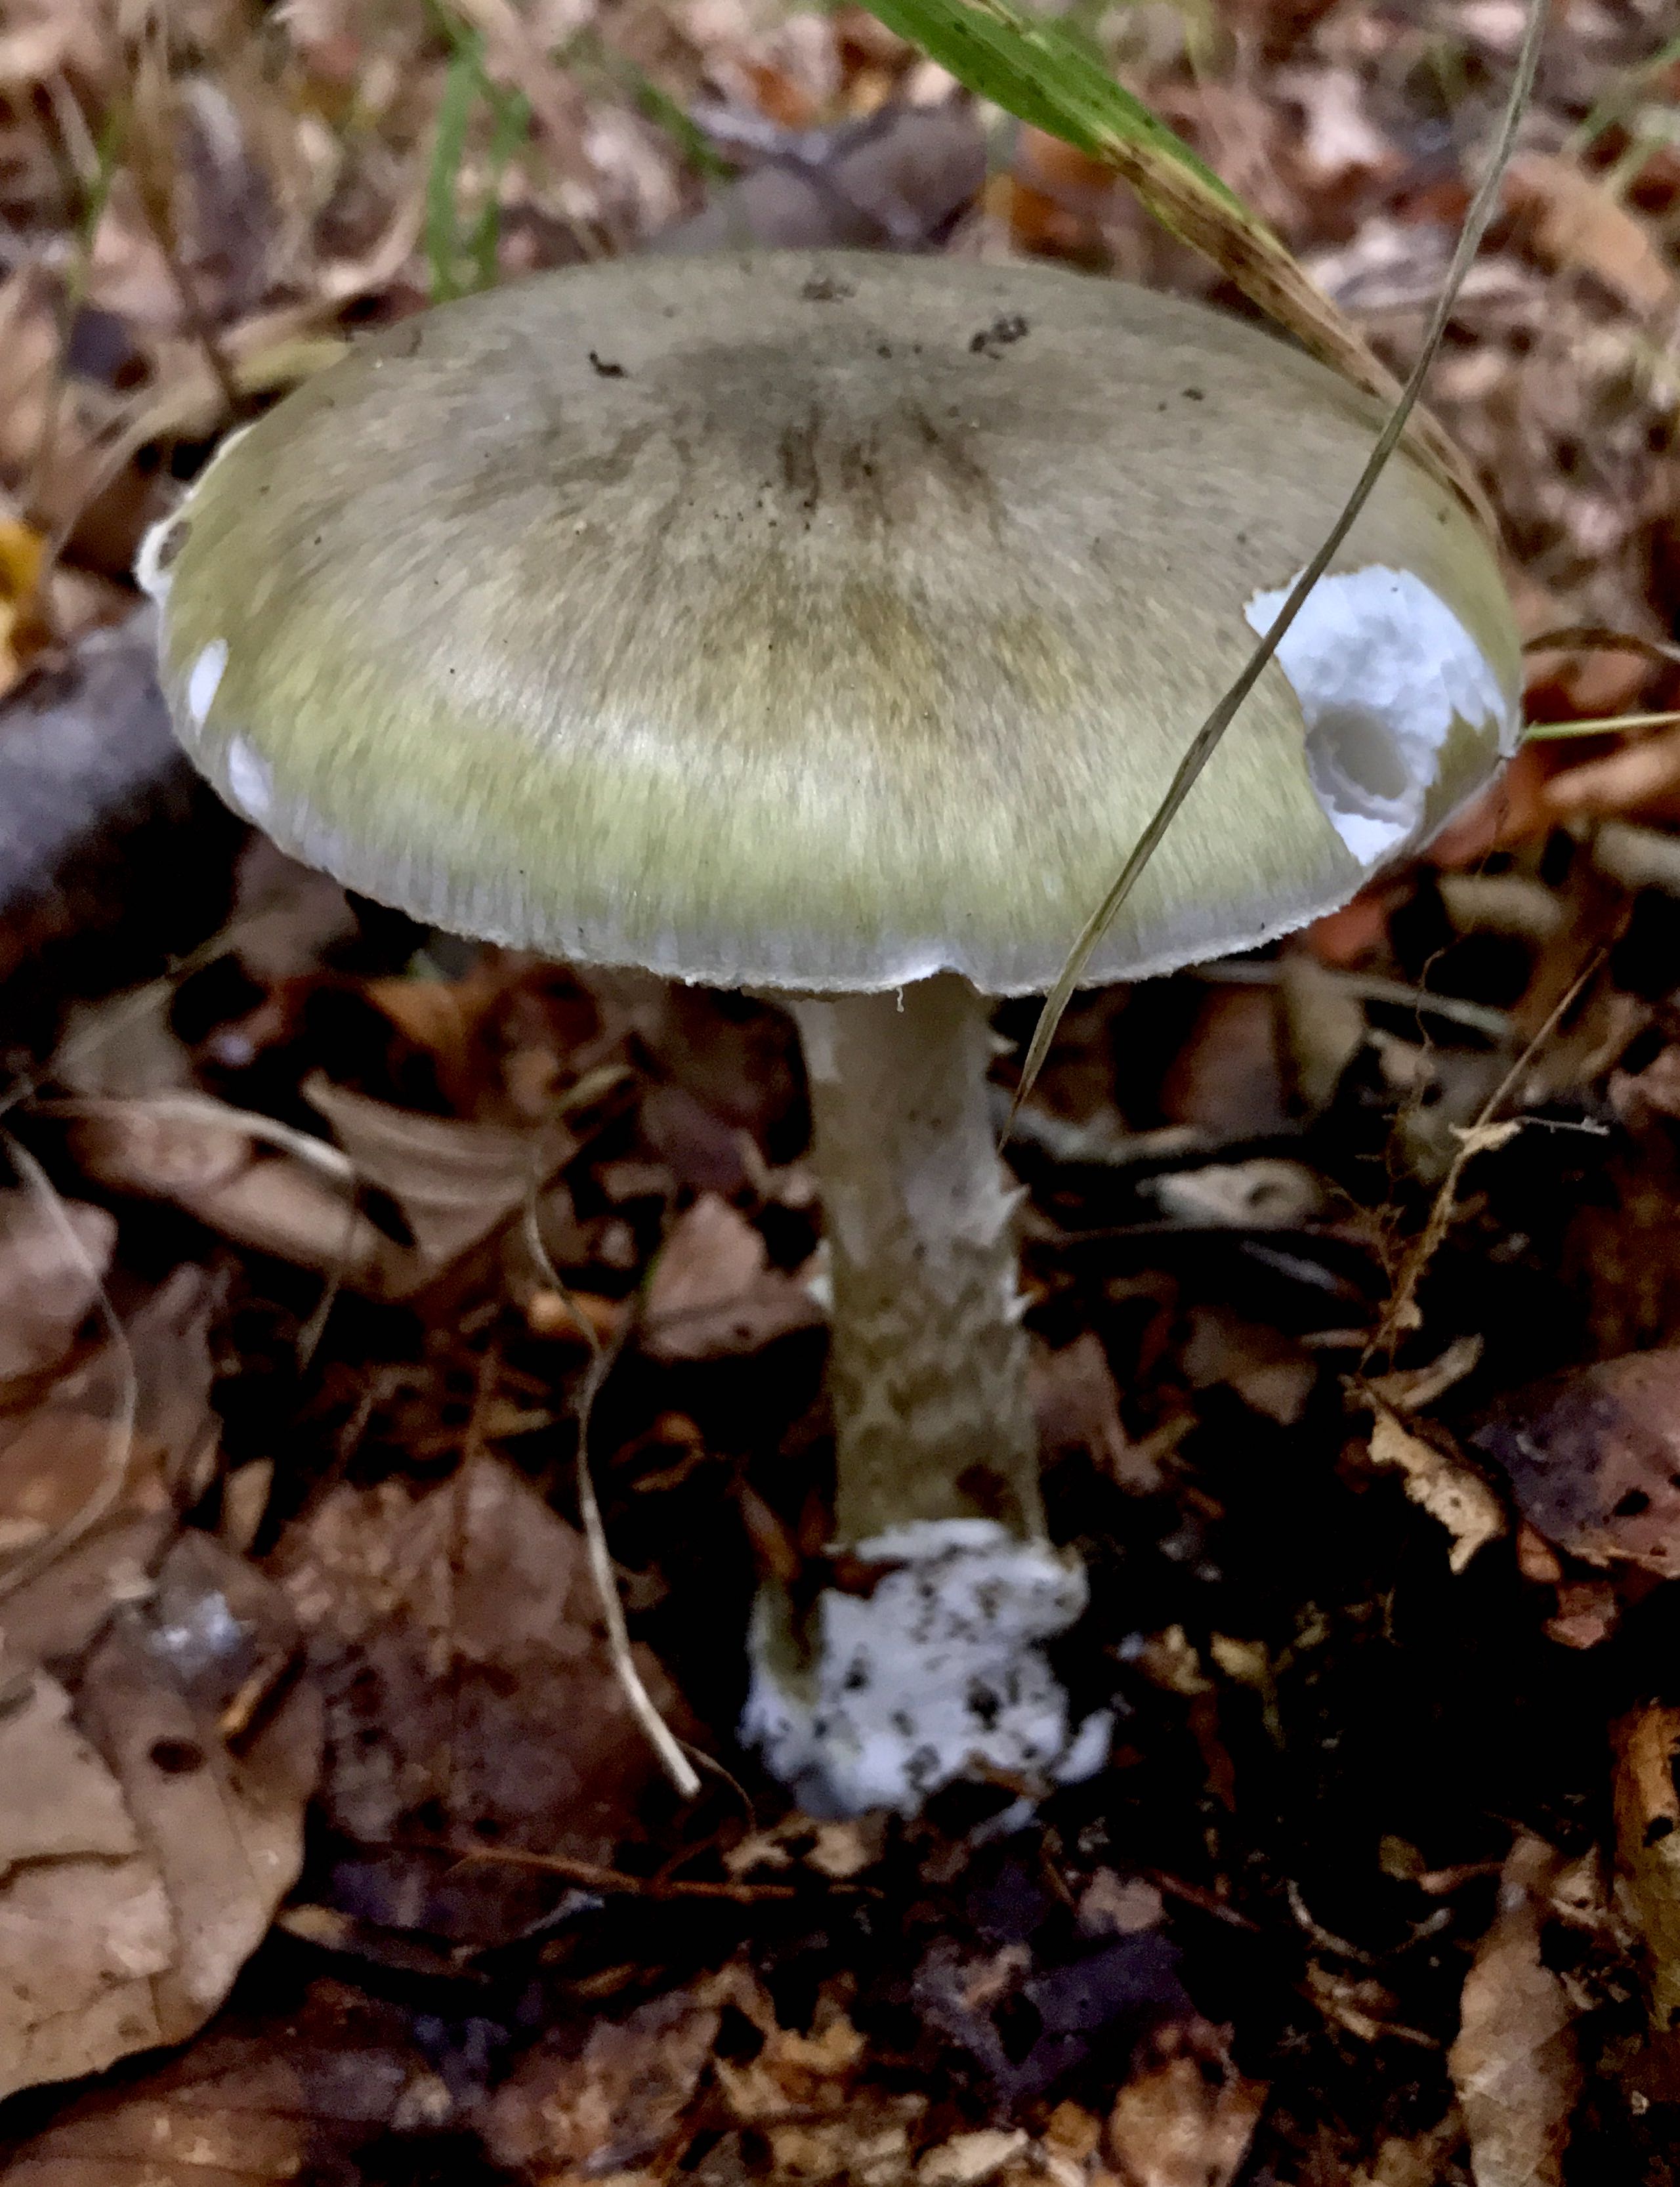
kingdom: Fungi
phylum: Basidiomycota
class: Agaricomycetes
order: Agaricales
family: Amanitaceae
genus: Amanita
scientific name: Amanita phalloides
